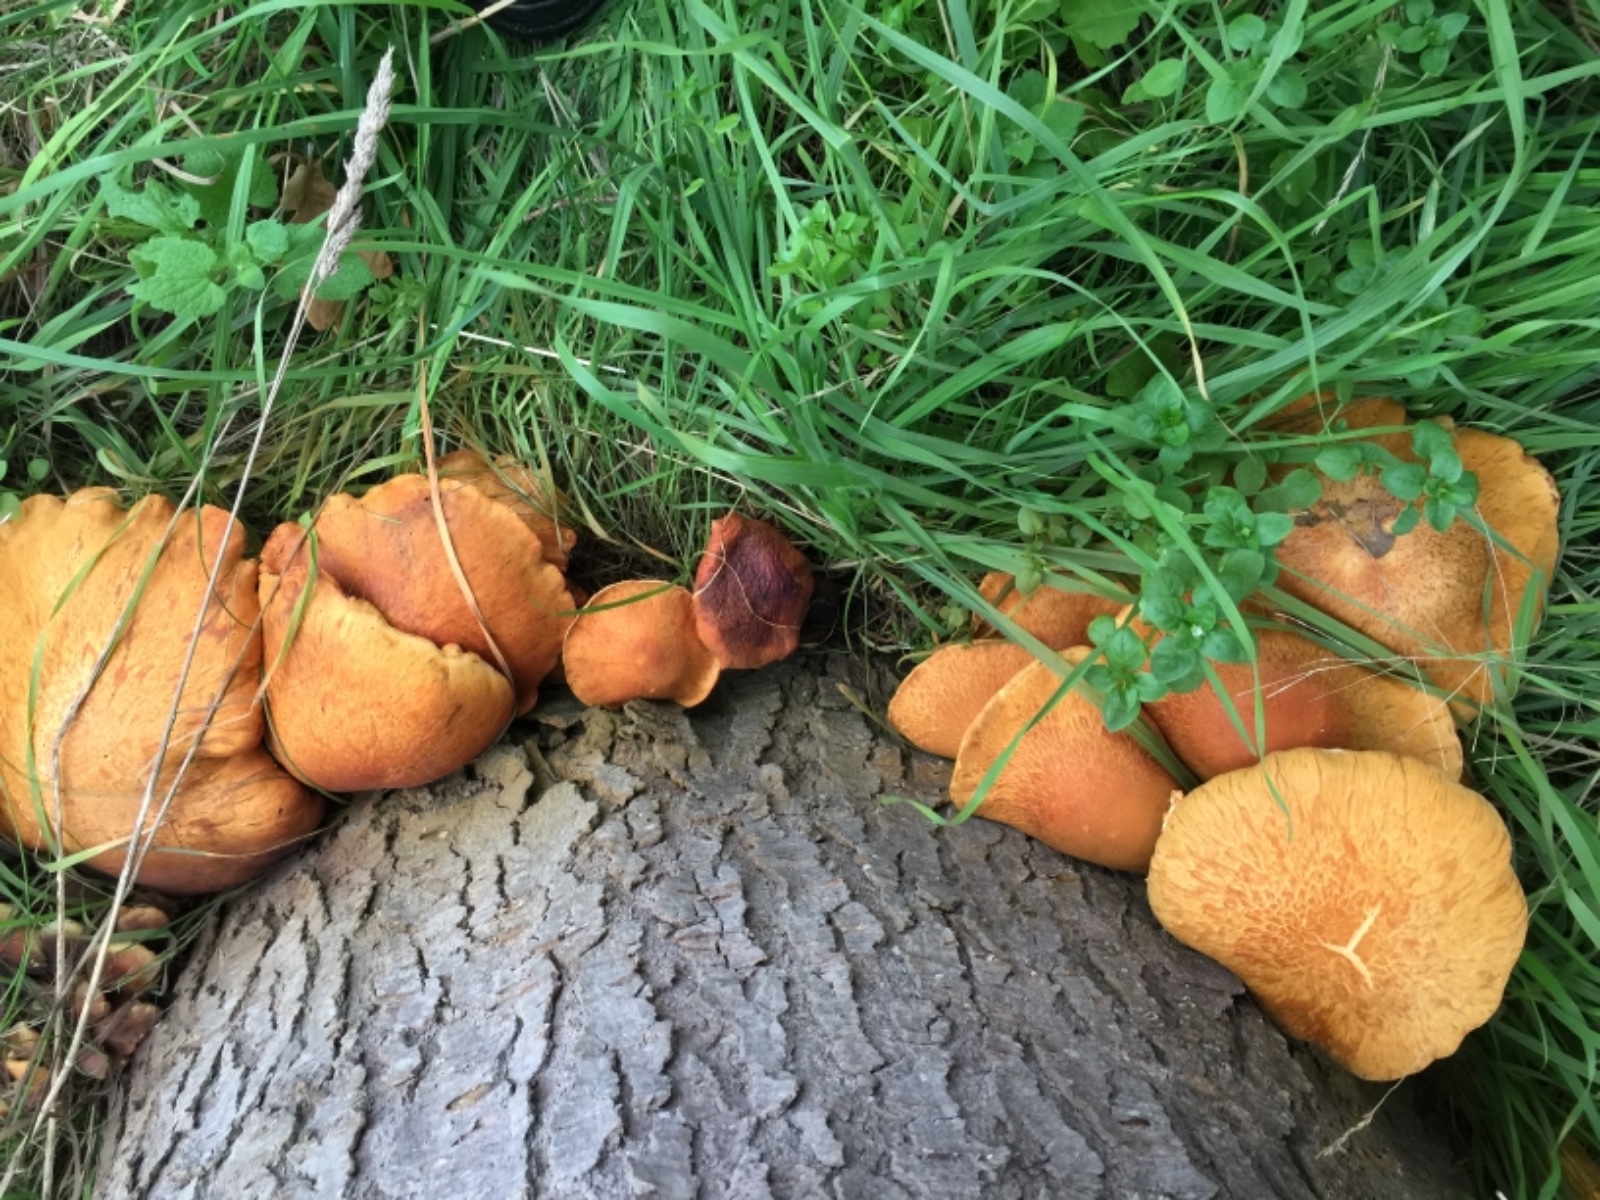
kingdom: Fungi
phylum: Basidiomycota
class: Agaricomycetes
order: Agaricales
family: Hymenogastraceae
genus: Gymnopilus
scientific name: Gymnopilus spectabilis
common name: fibret flammehat
